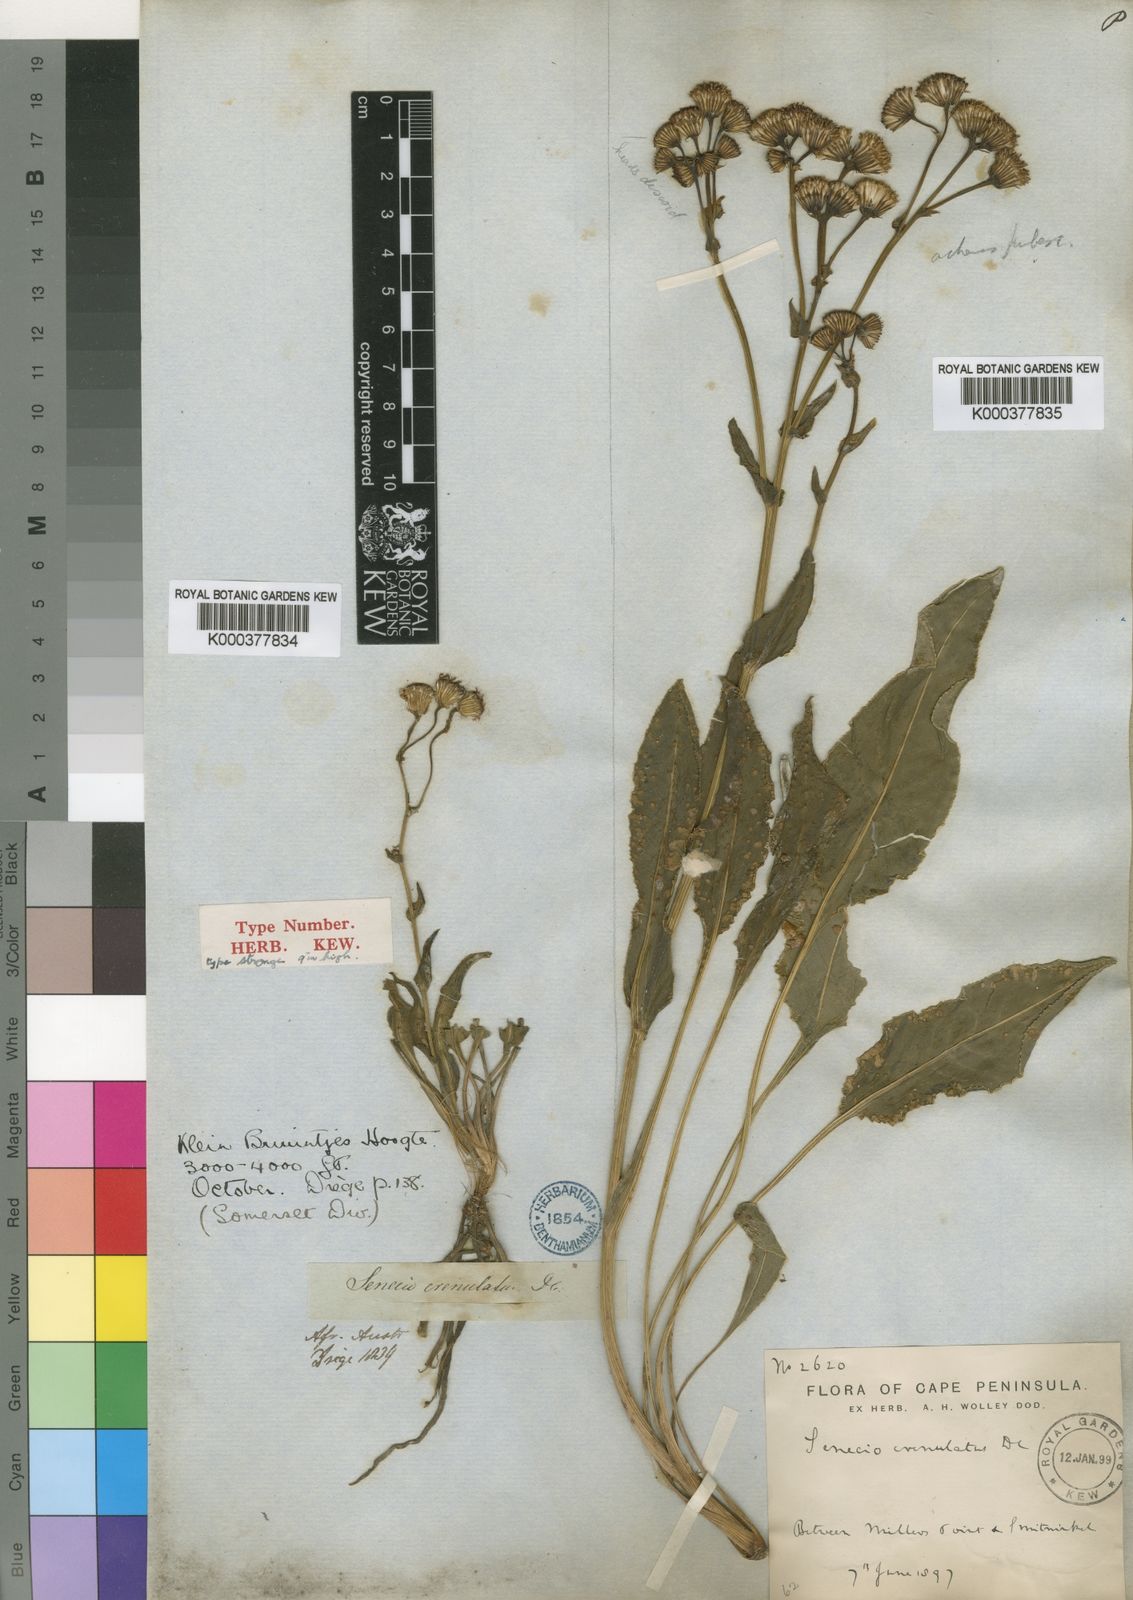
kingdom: Plantae
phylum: Tracheophyta
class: Magnoliopsida
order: Asterales
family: Asteraceae
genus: Senecio
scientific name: Senecio crenulatus
